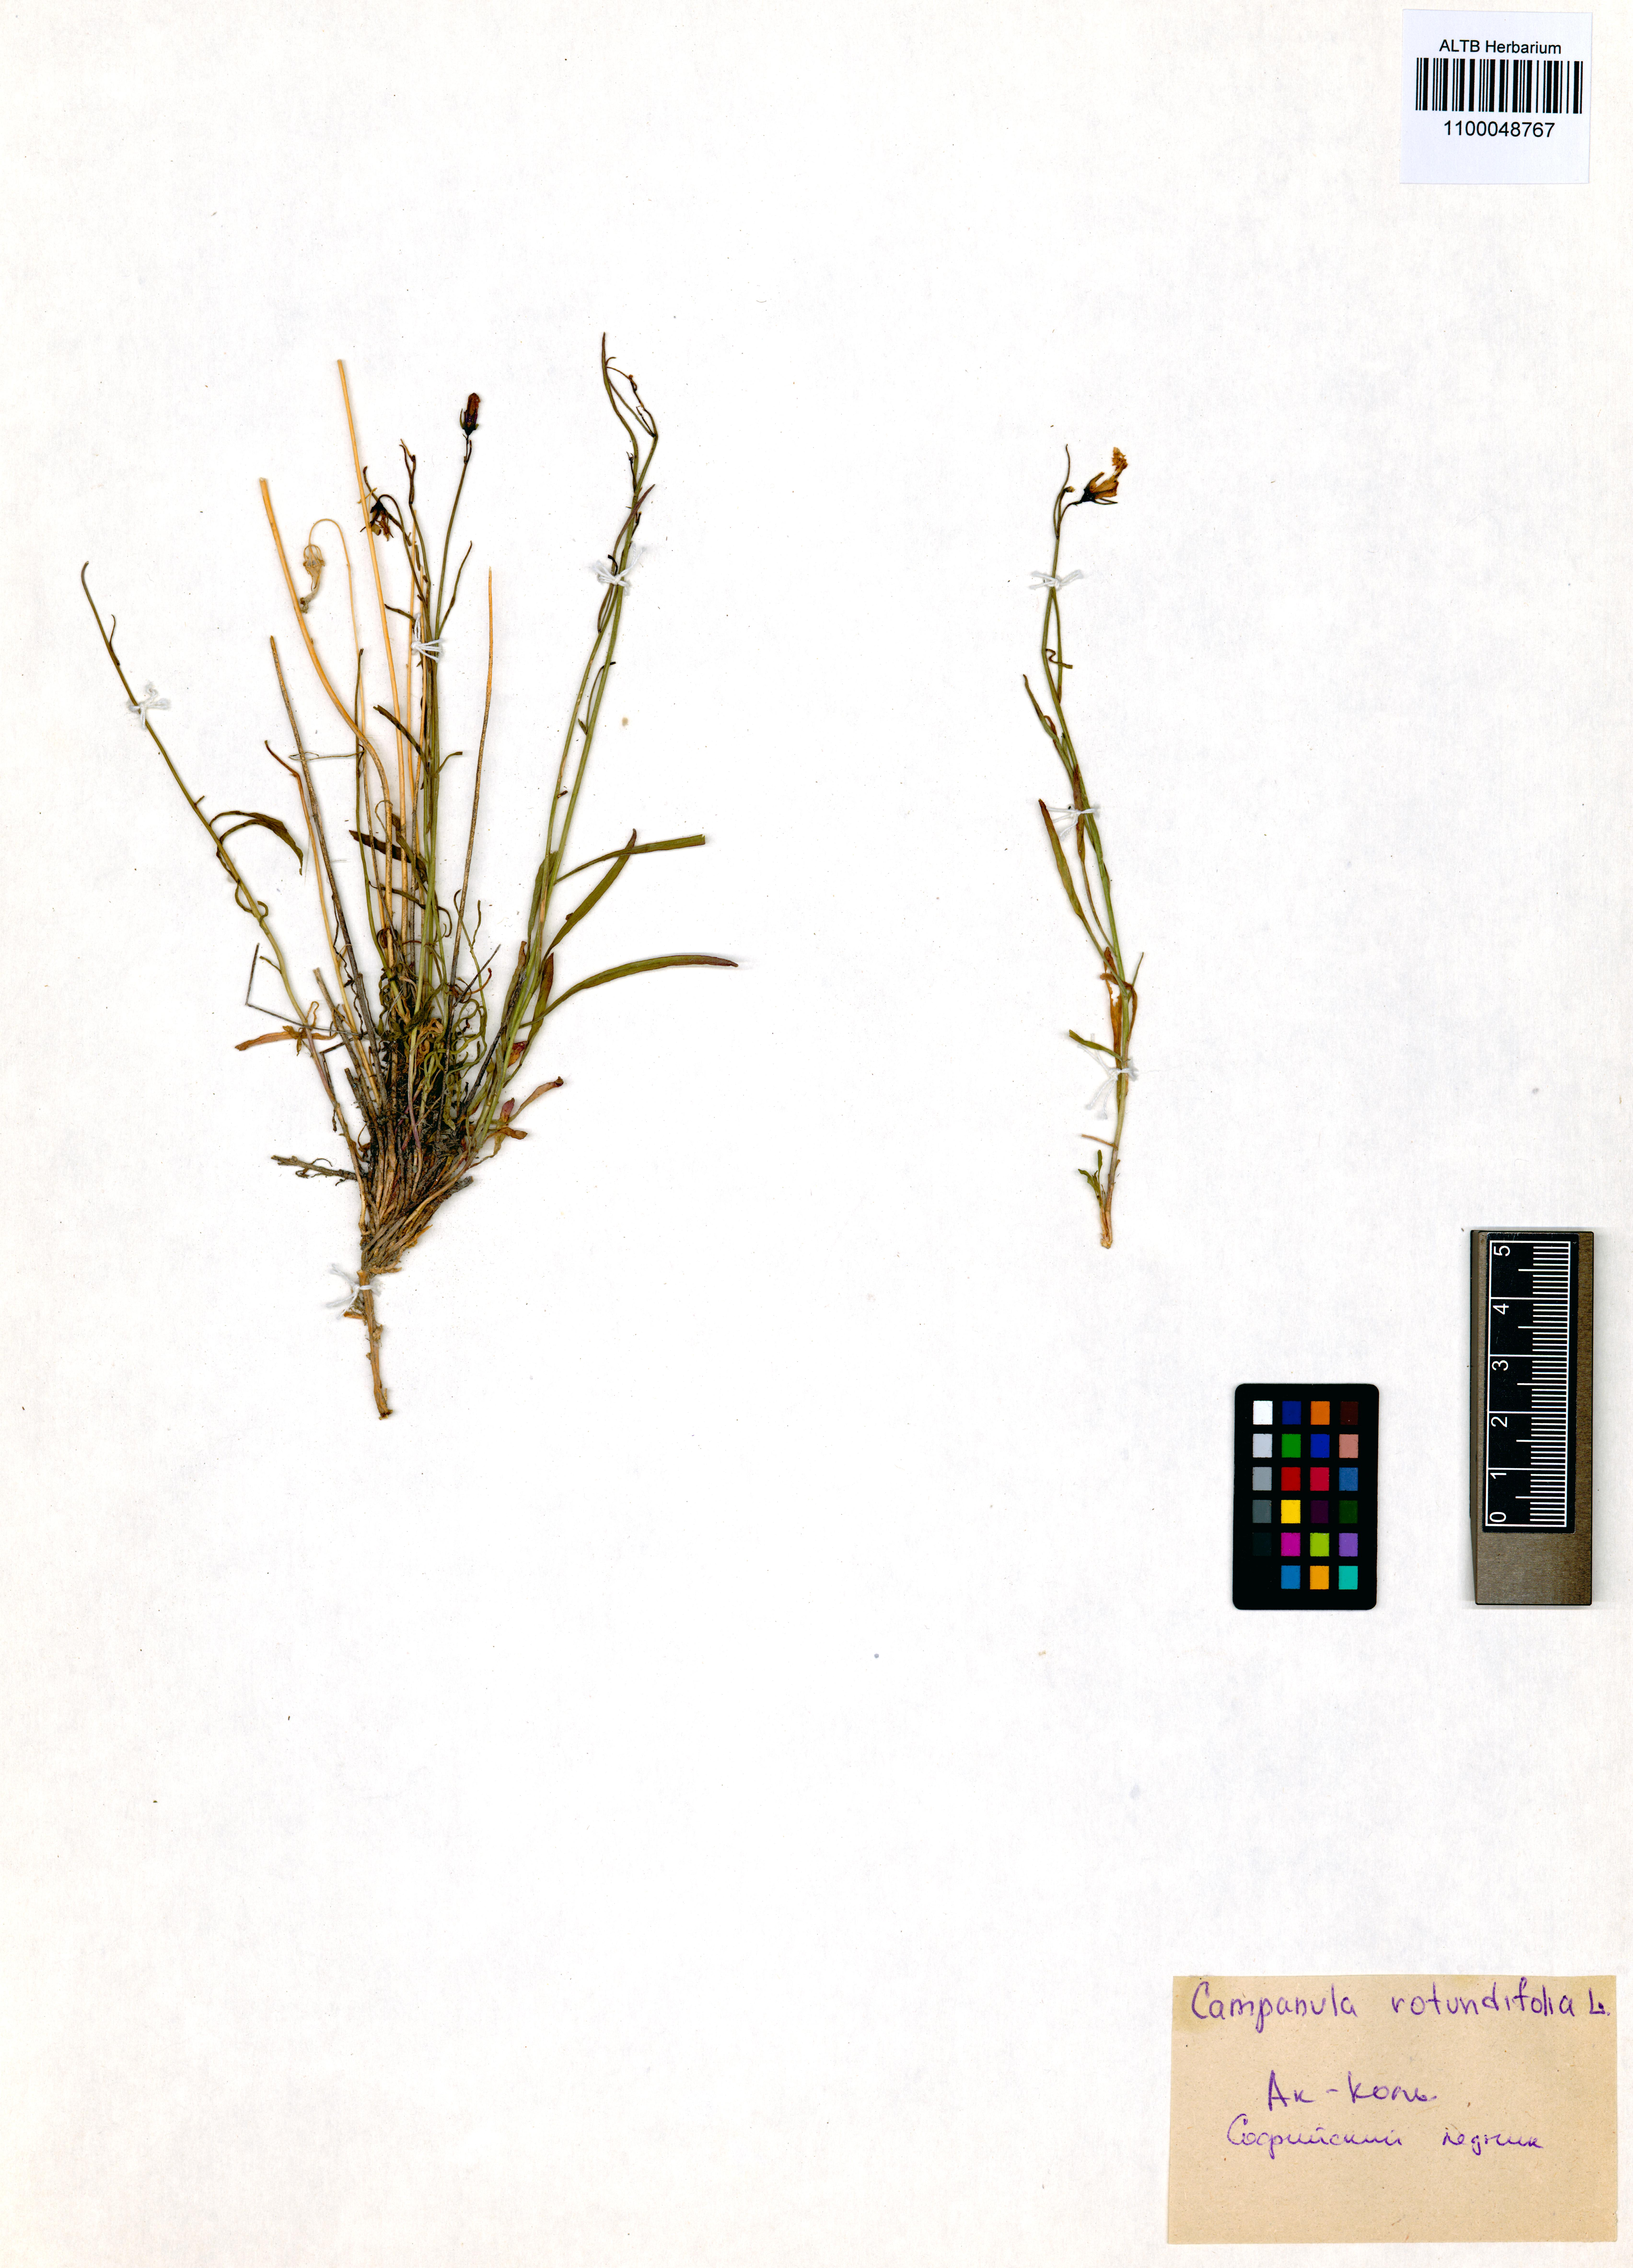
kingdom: Plantae
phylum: Tracheophyta
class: Magnoliopsida
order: Asterales
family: Campanulaceae
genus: Campanula
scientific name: Campanula rotundifolia
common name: Harebell
